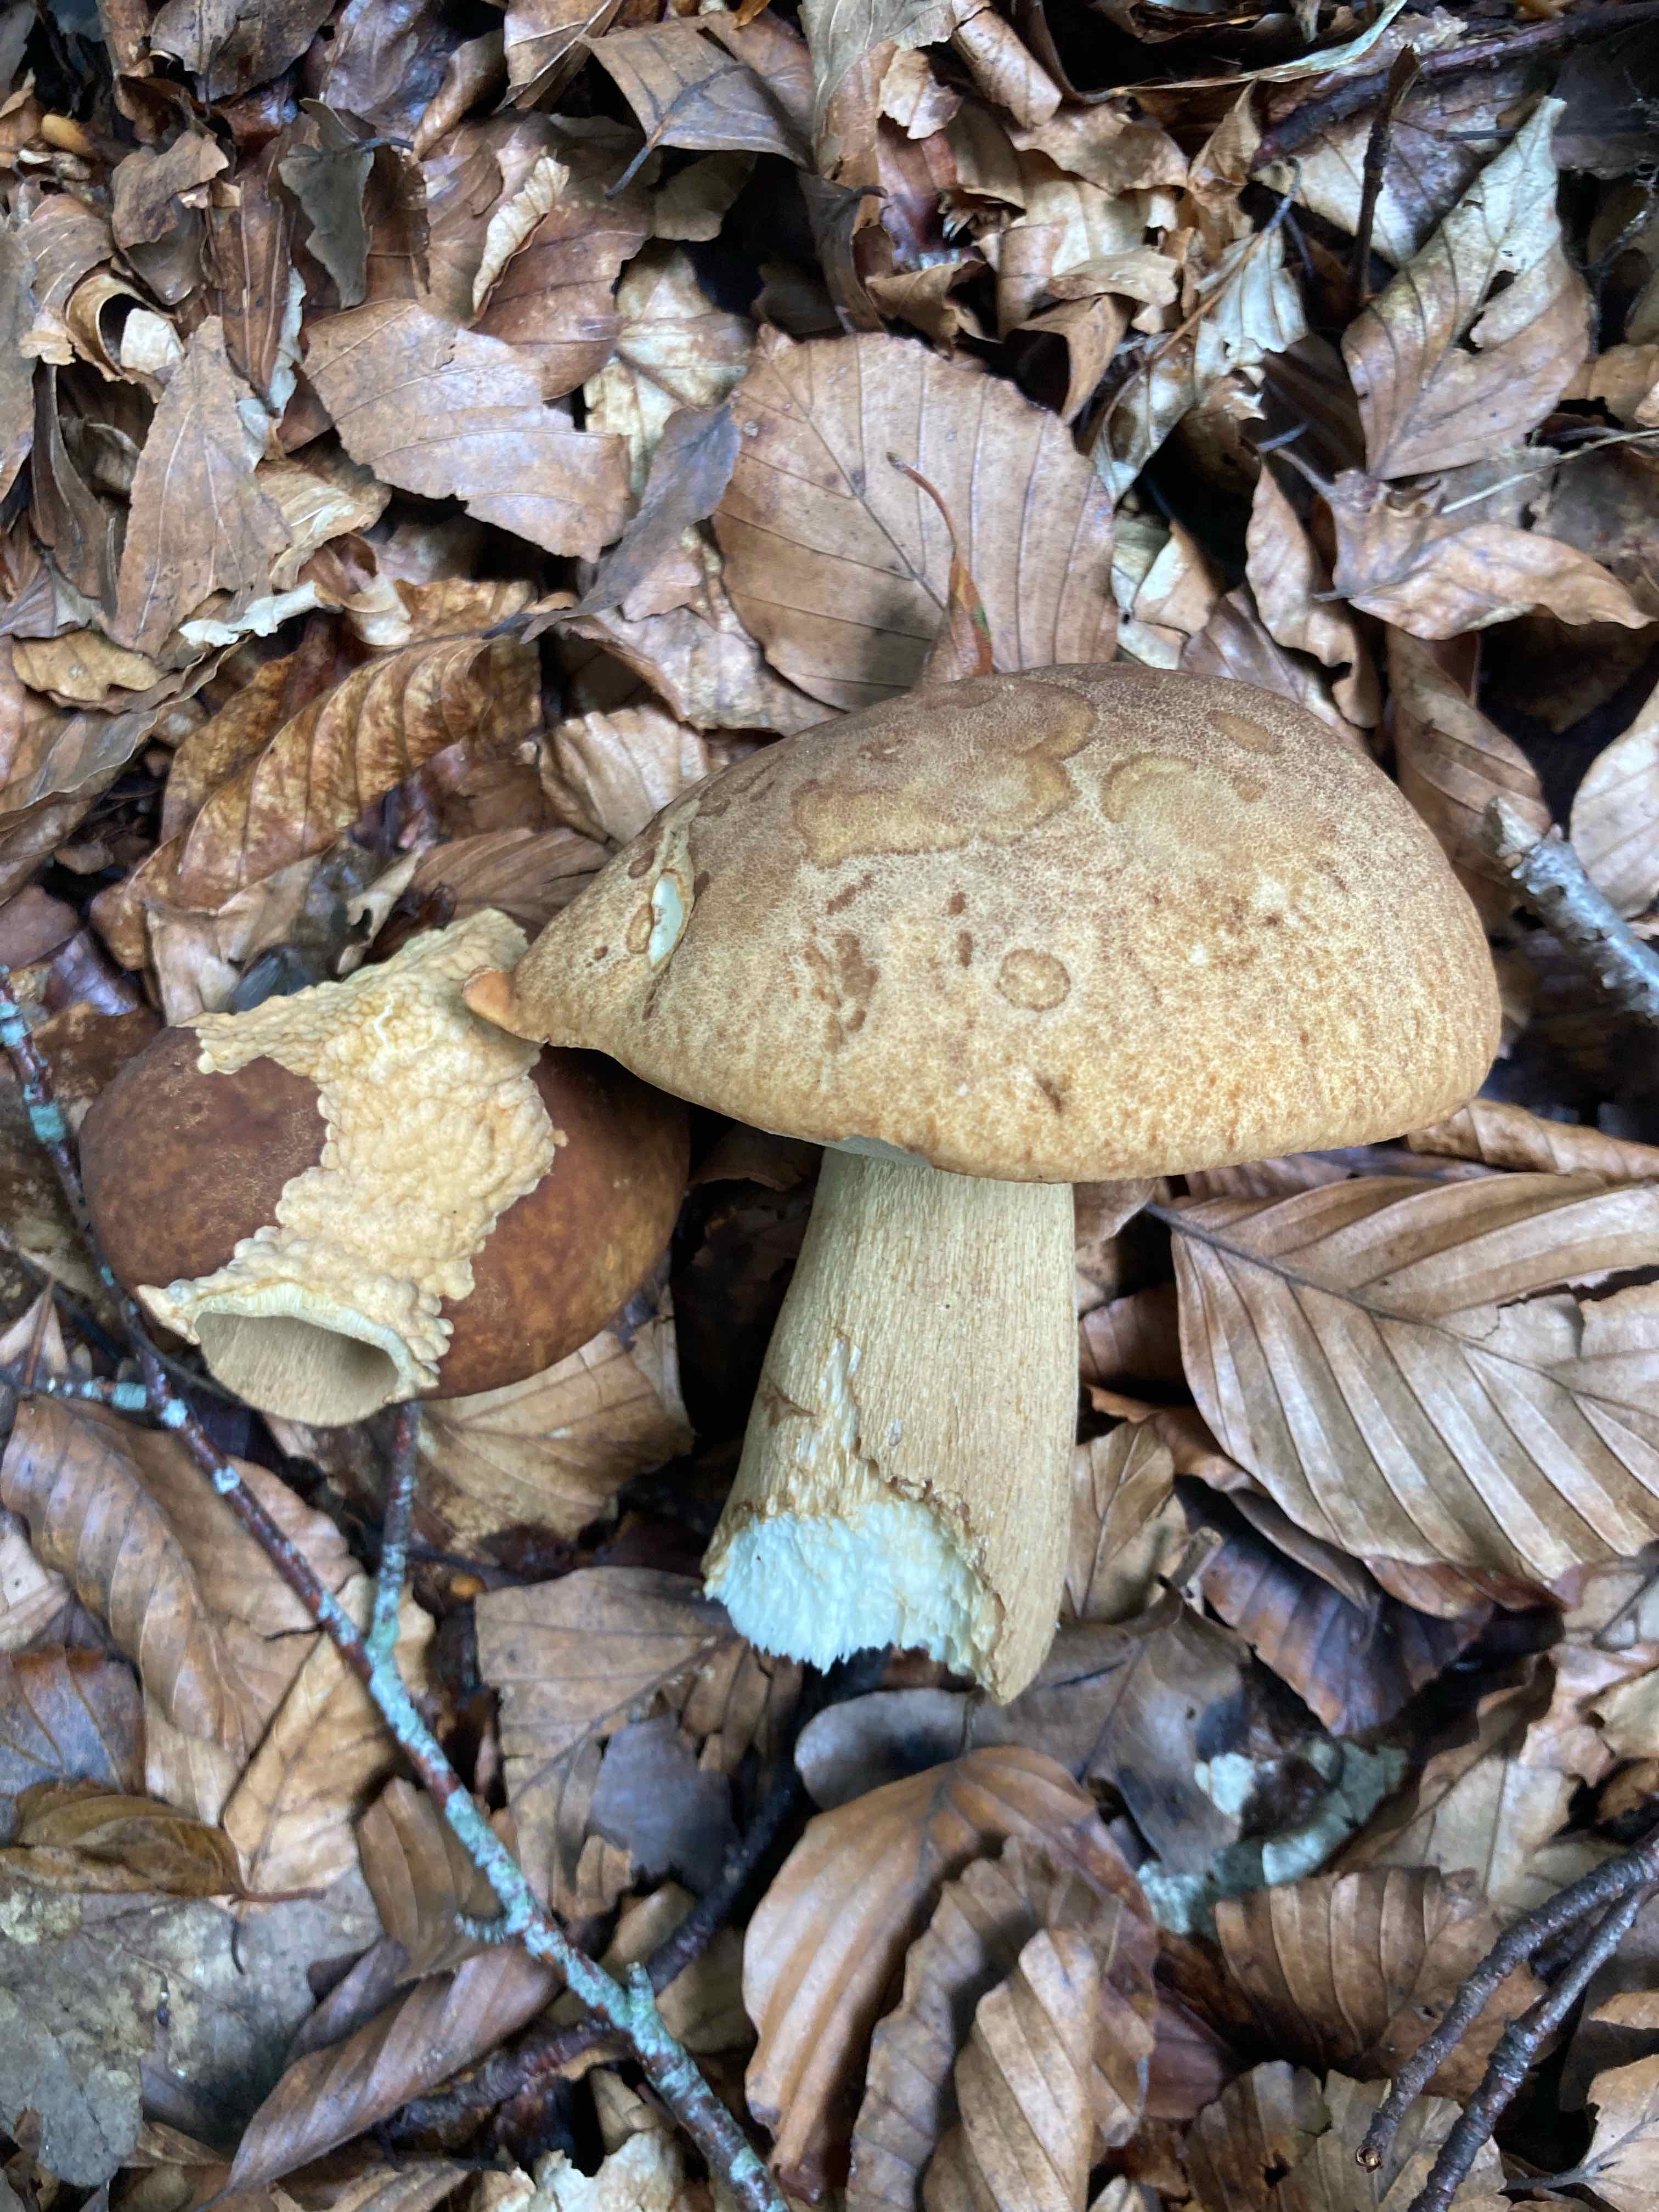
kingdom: Fungi
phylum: Basidiomycota
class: Agaricomycetes
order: Boletales
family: Boletaceae
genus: Boletus
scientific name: Boletus reticulatus
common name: sommer-rørhat
